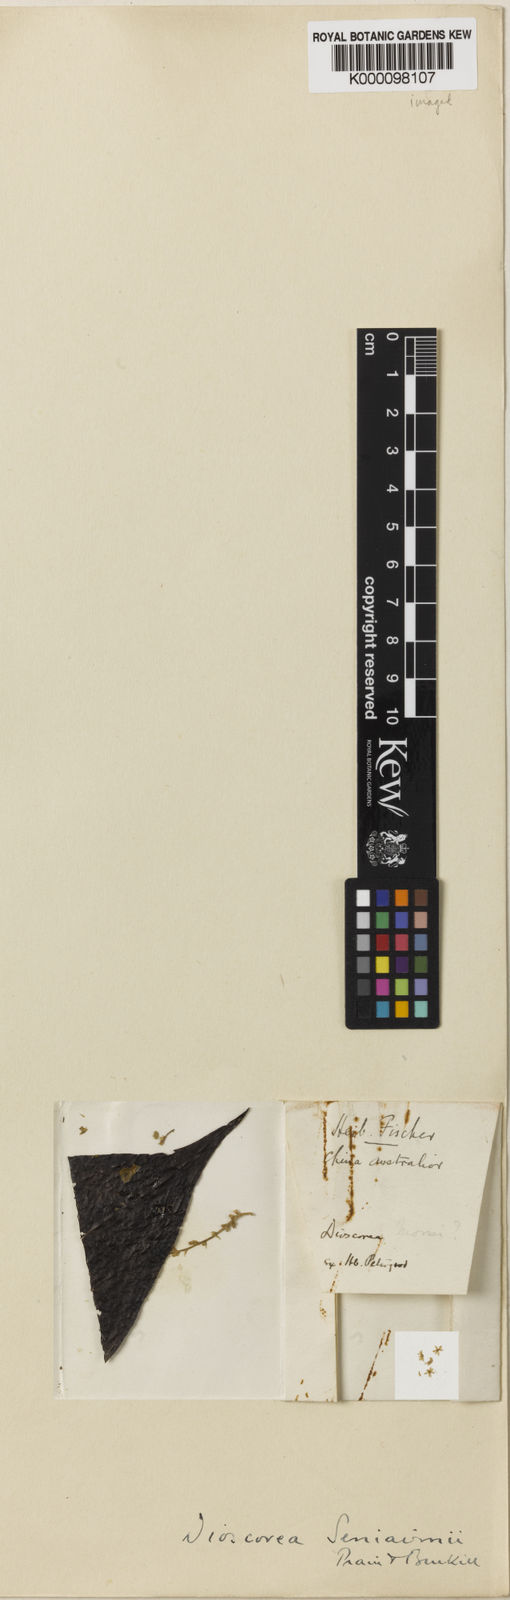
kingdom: Plantae
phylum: Tracheophyta
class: Liliopsida
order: Dioscoreales
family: Dioscoreaceae
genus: Dioscorea
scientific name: Dioscorea collettii
